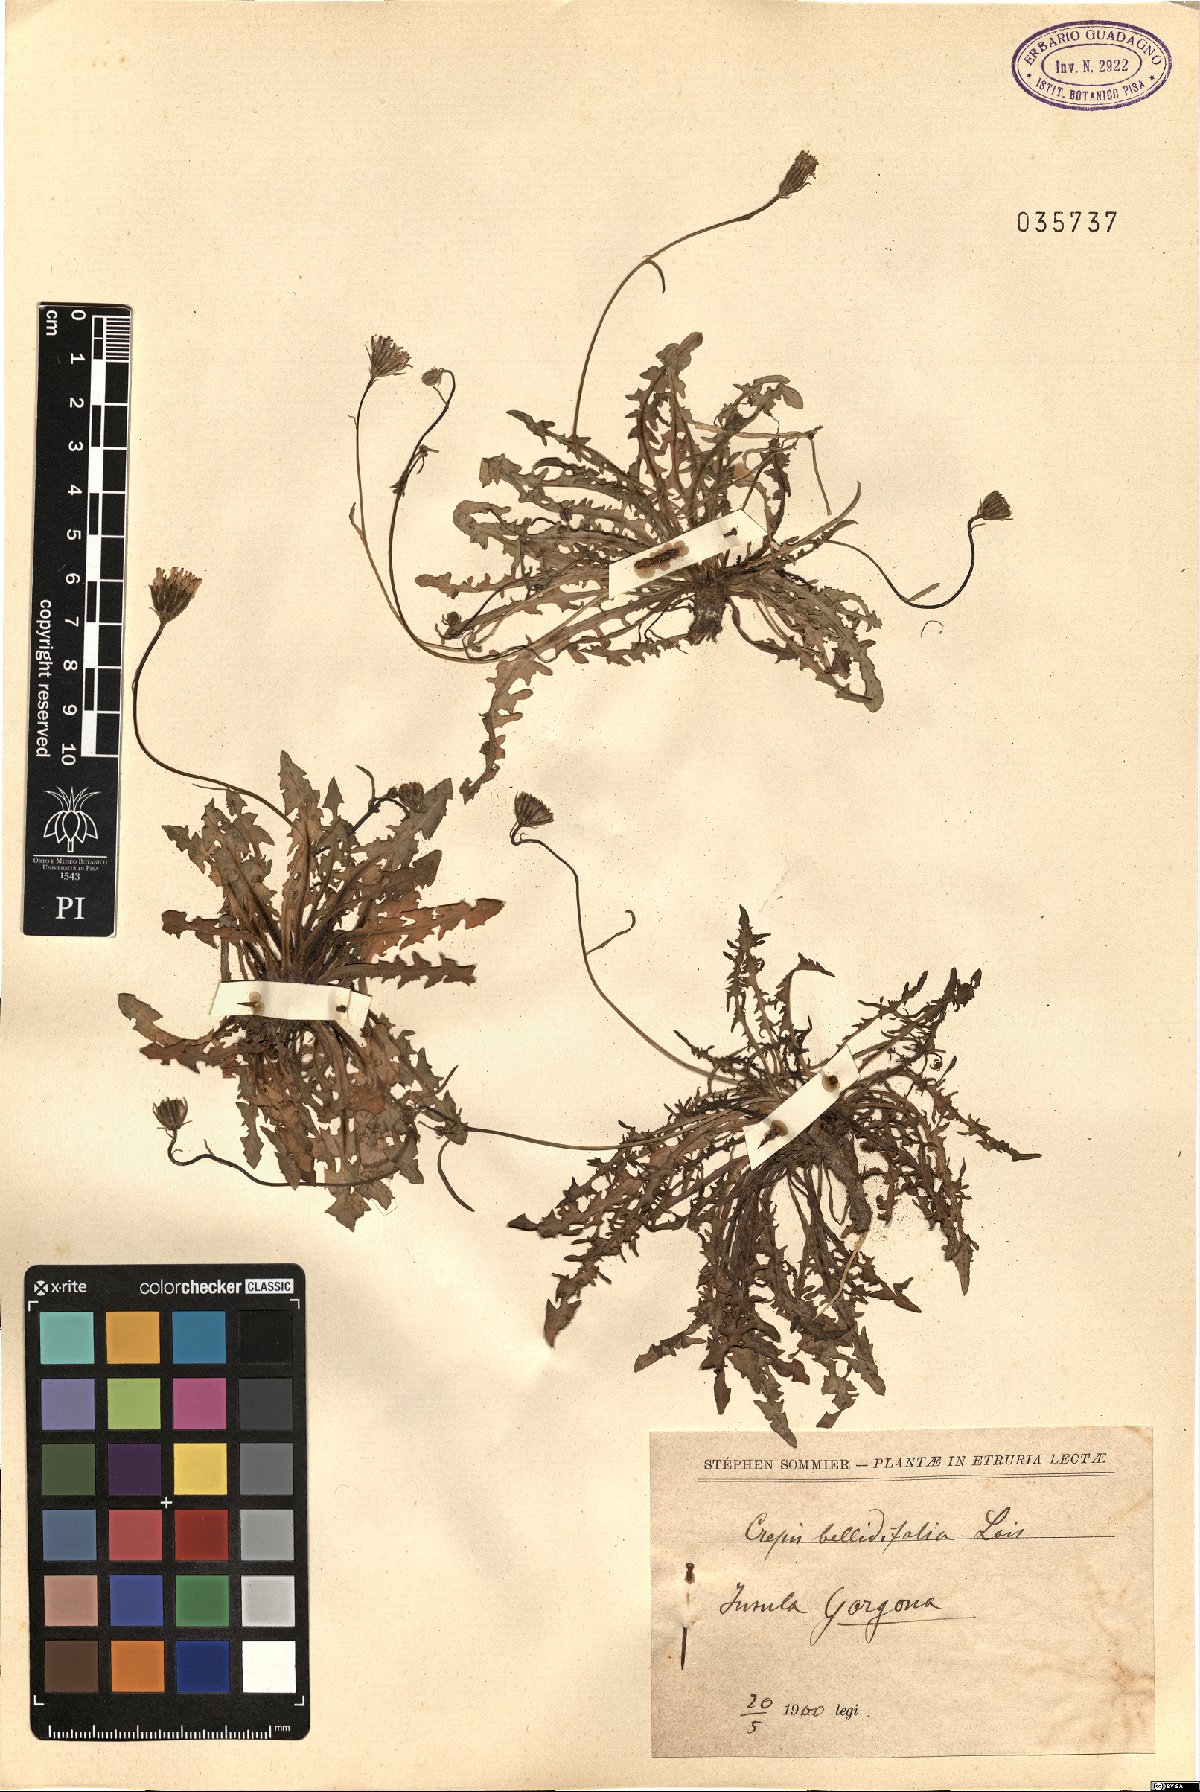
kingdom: Plantae
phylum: Tracheophyta
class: Magnoliopsida
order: Asterales
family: Asteraceae
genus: Crepis
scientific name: Crepis bellidifolia
